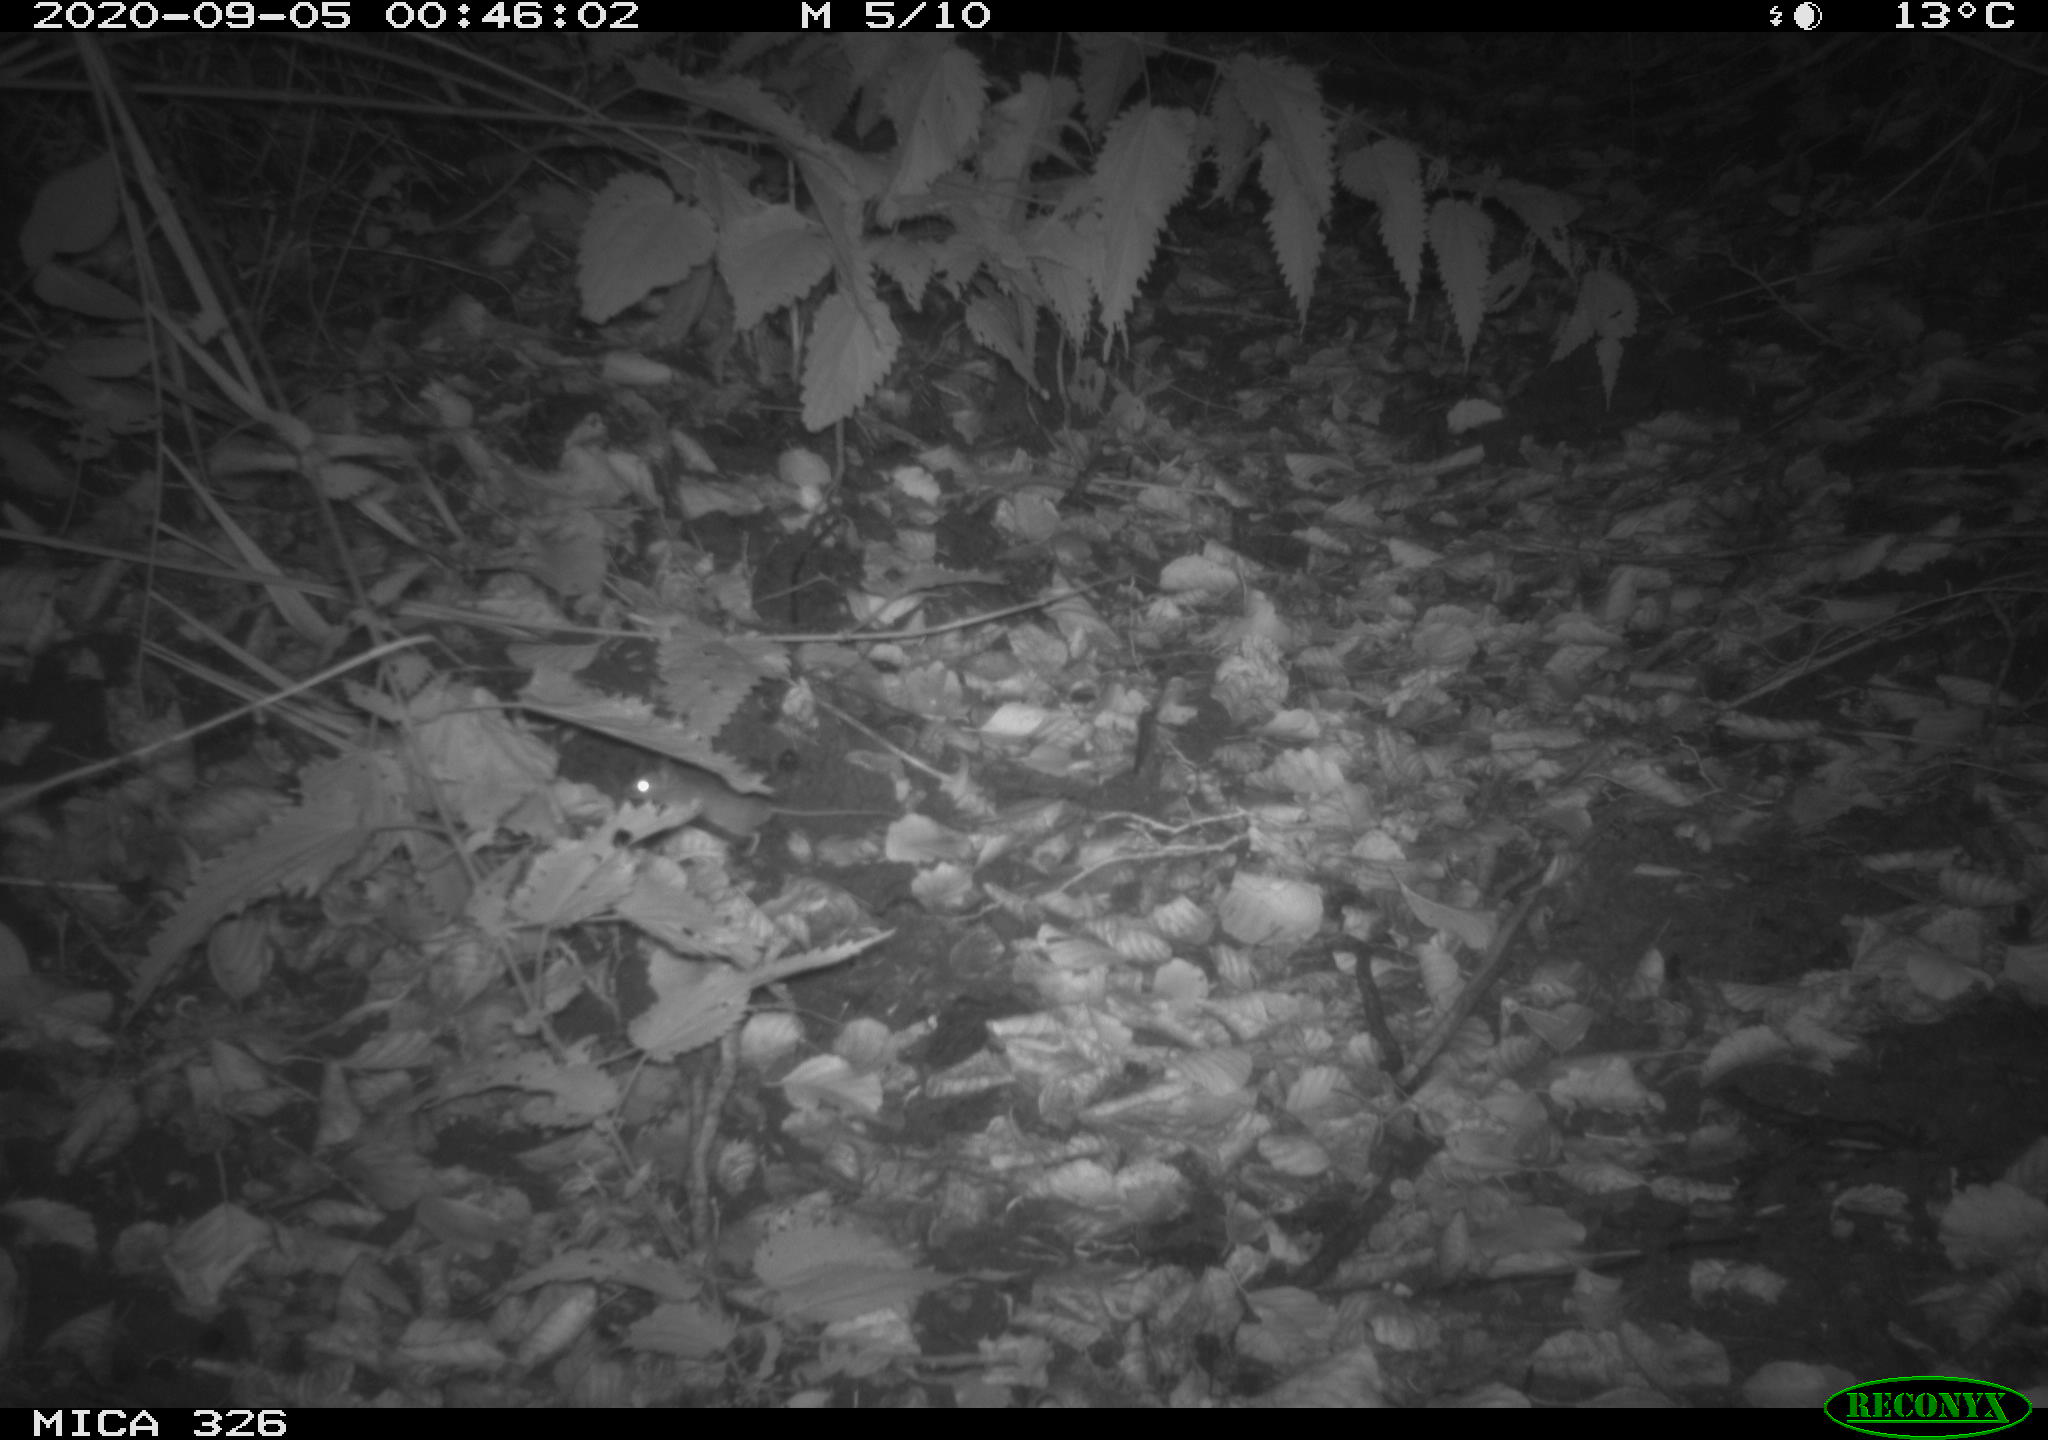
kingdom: Animalia
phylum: Chordata
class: Mammalia
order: Rodentia
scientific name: Rodentia
